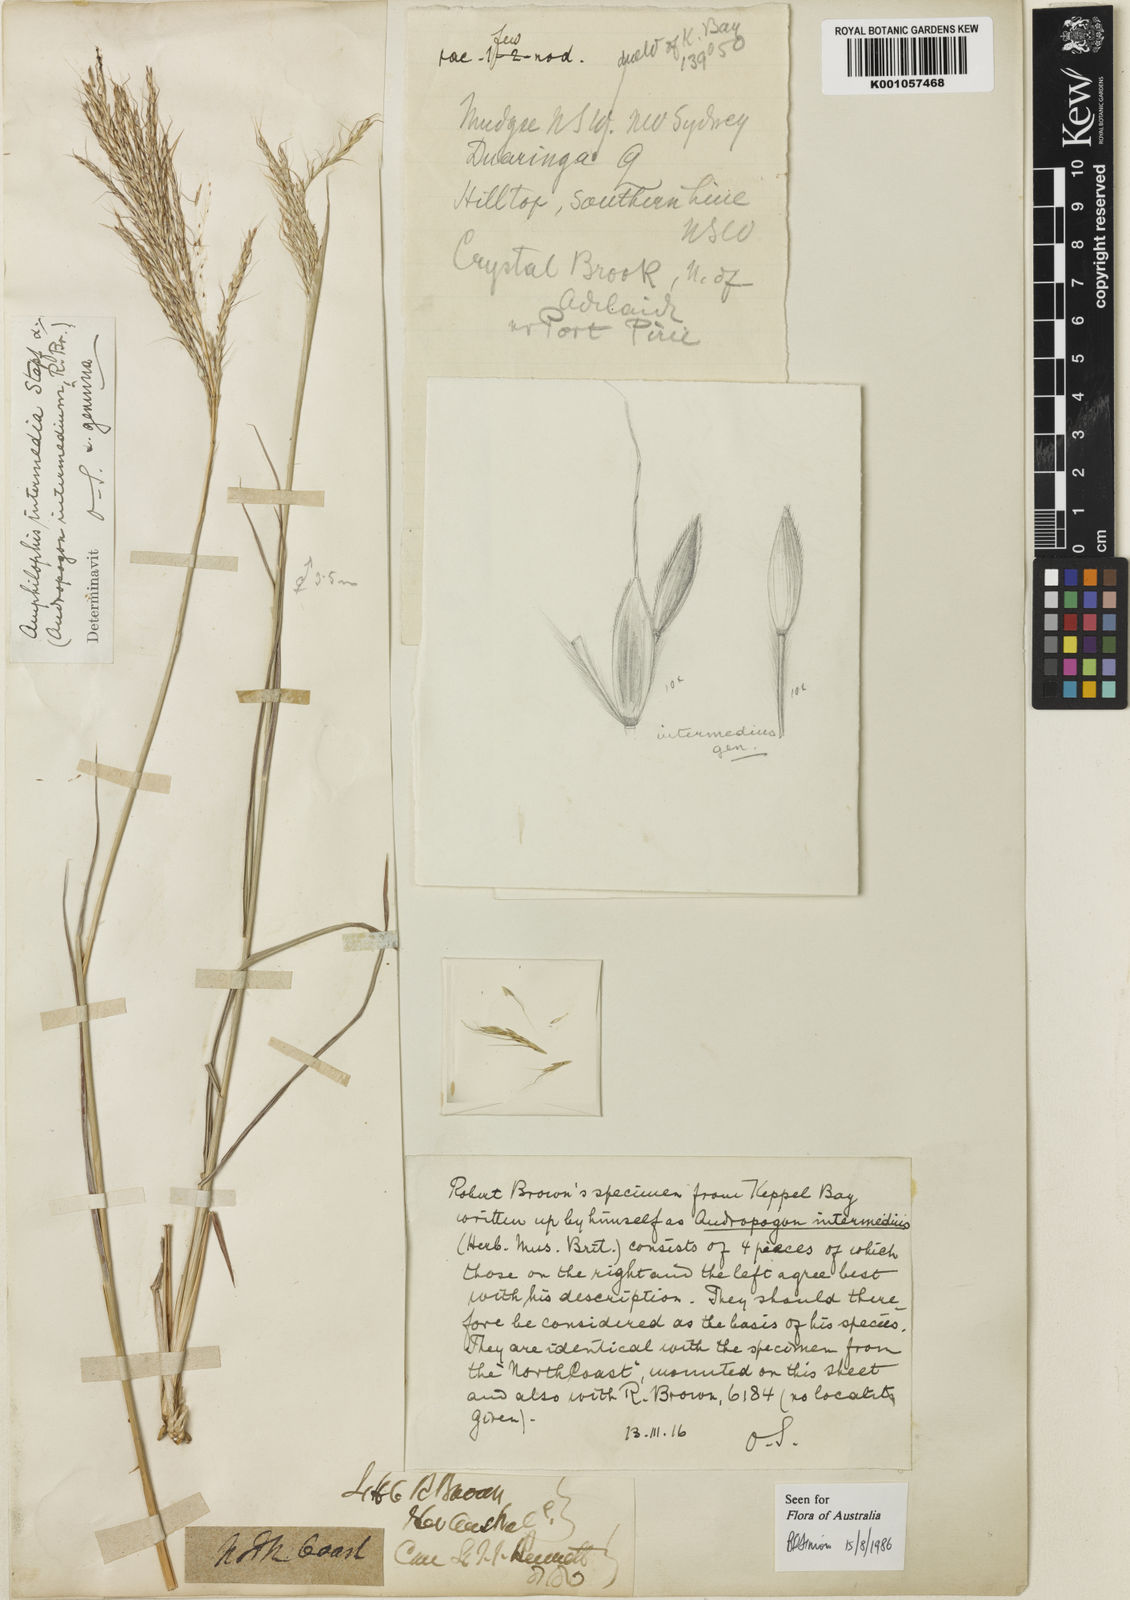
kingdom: Plantae
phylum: Tracheophyta
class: Liliopsida
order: Poales
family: Poaceae
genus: Bothriochloa
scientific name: Bothriochloa bladhii
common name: Caucasian bluestem
